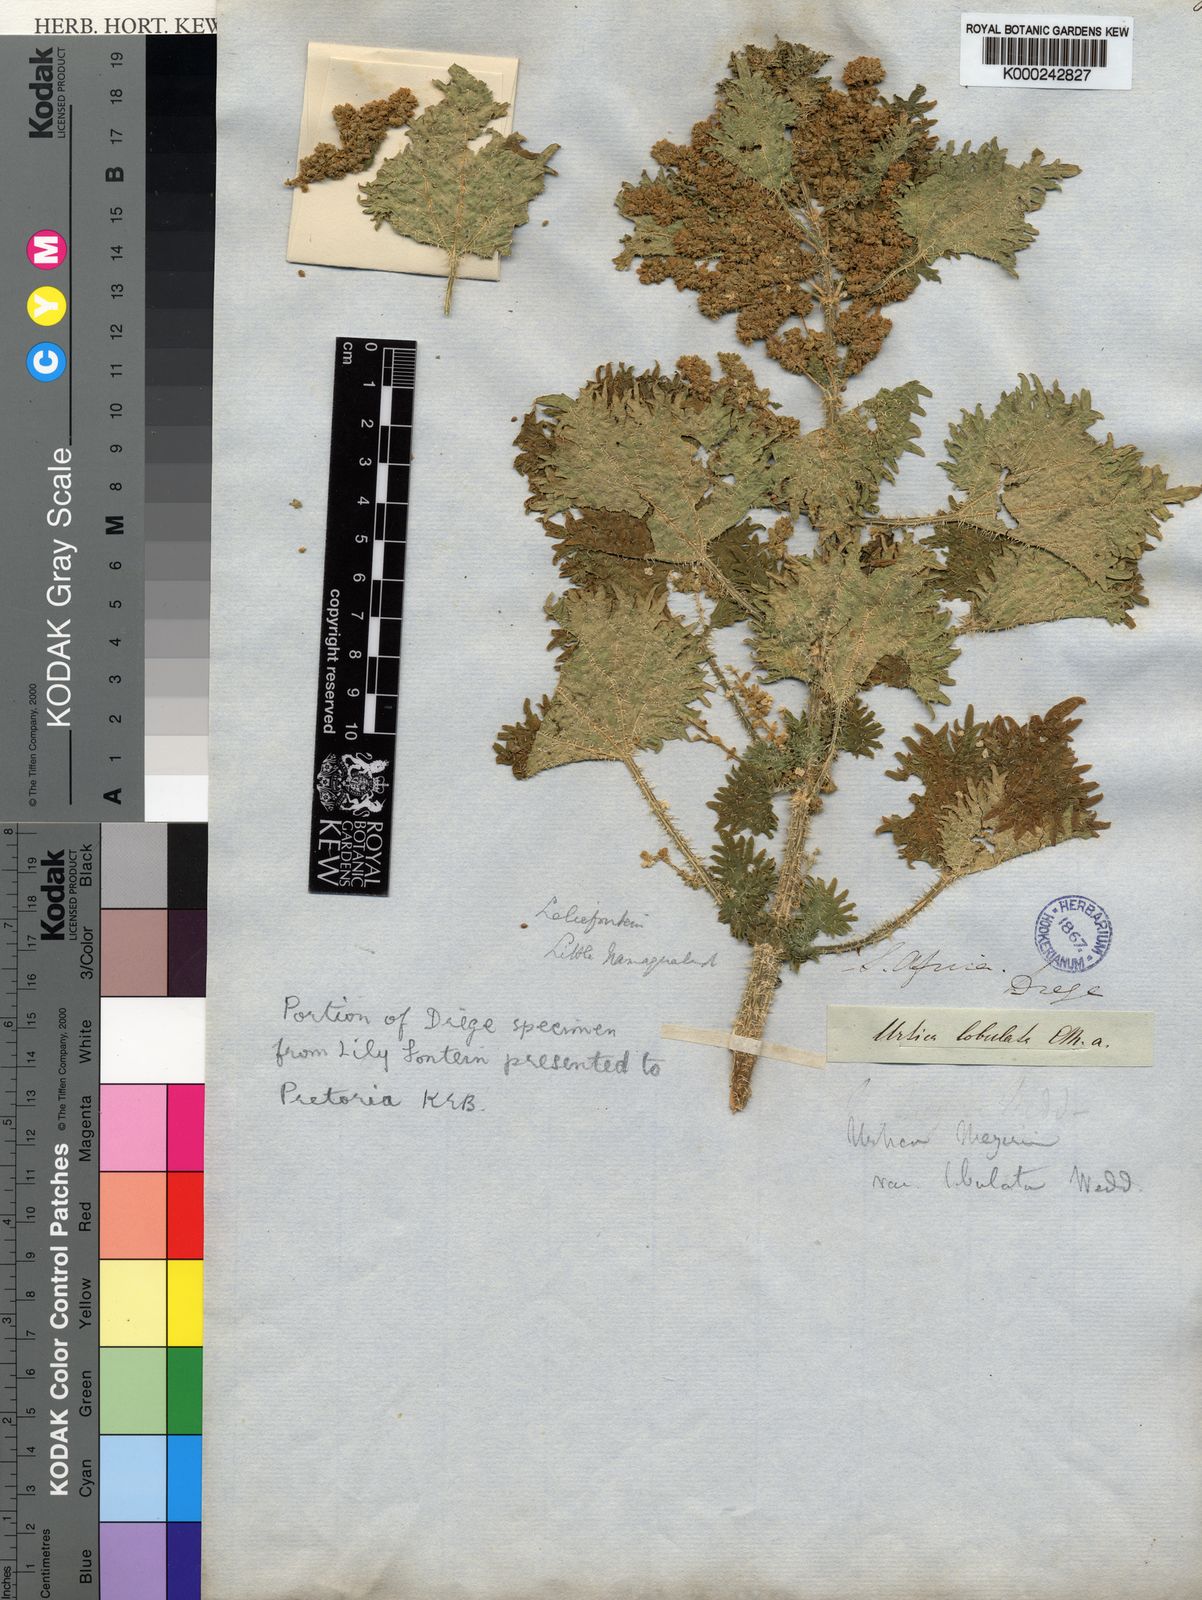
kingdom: Plantae
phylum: Tracheophyta
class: Magnoliopsida
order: Rosales
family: Urticaceae
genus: Urtica
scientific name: Urtica
